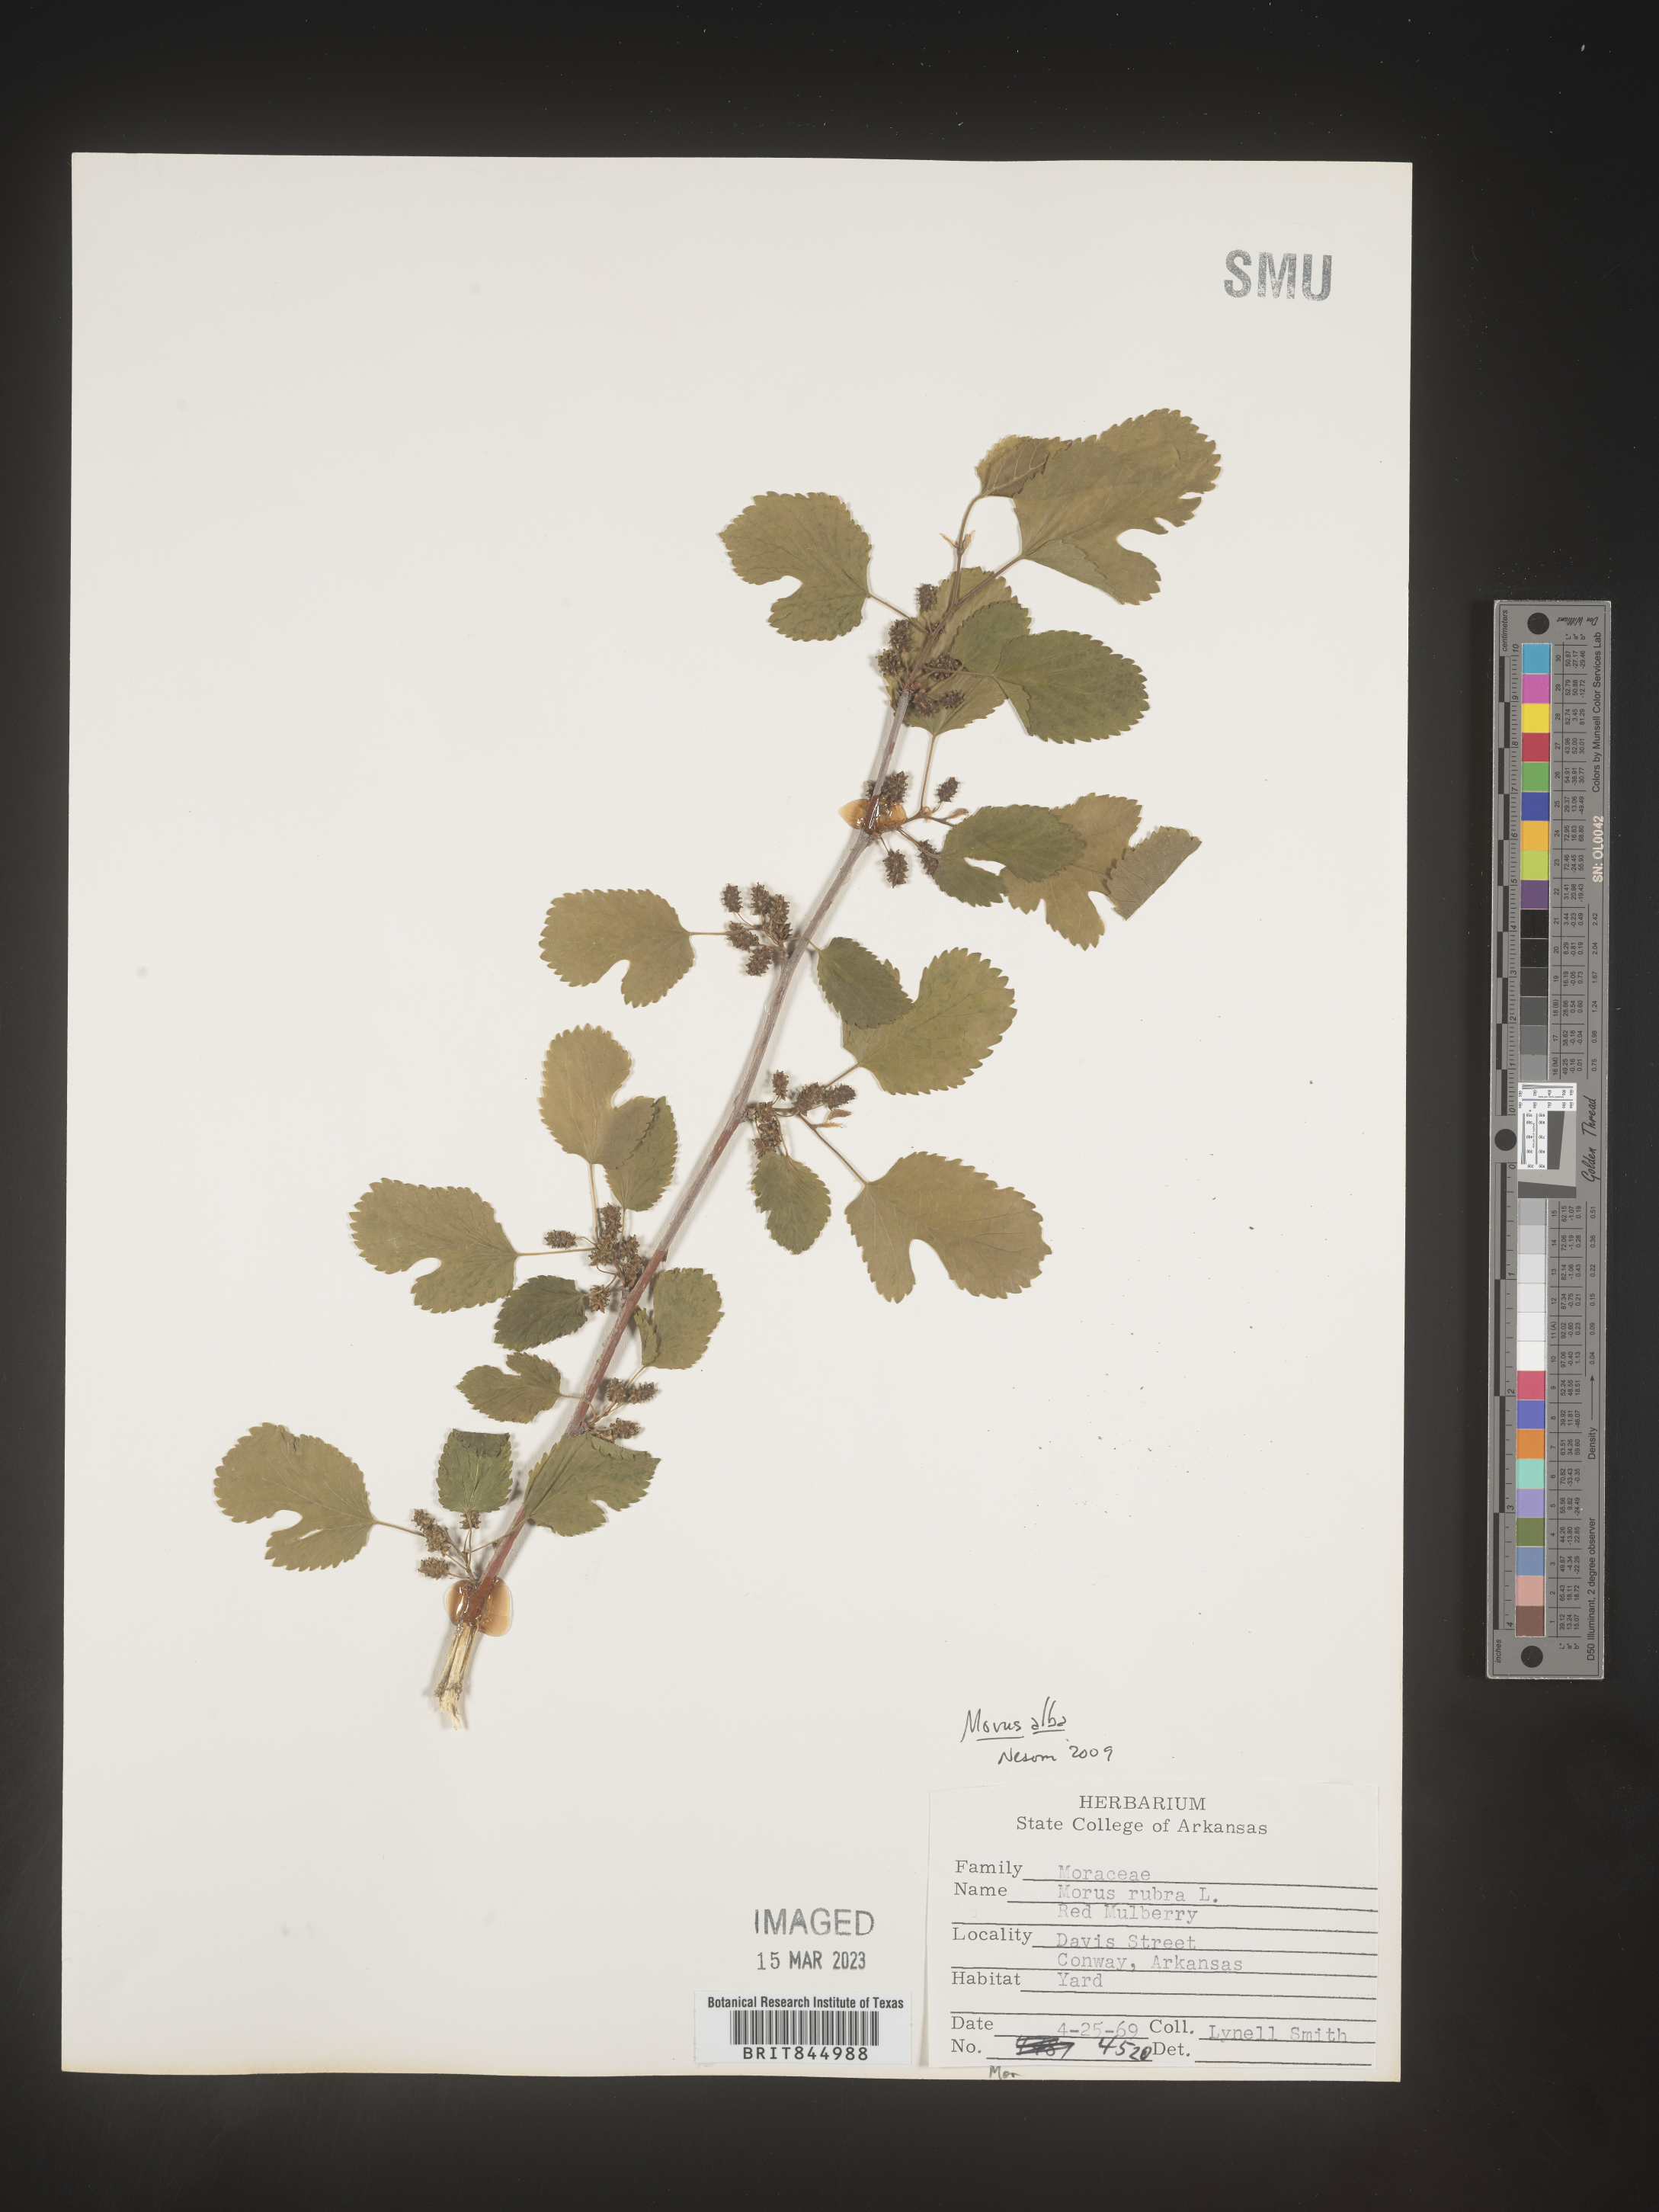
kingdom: Plantae
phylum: Tracheophyta
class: Magnoliopsida
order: Rosales
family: Moraceae
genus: Morus
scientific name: Morus alba
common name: White mulberry
